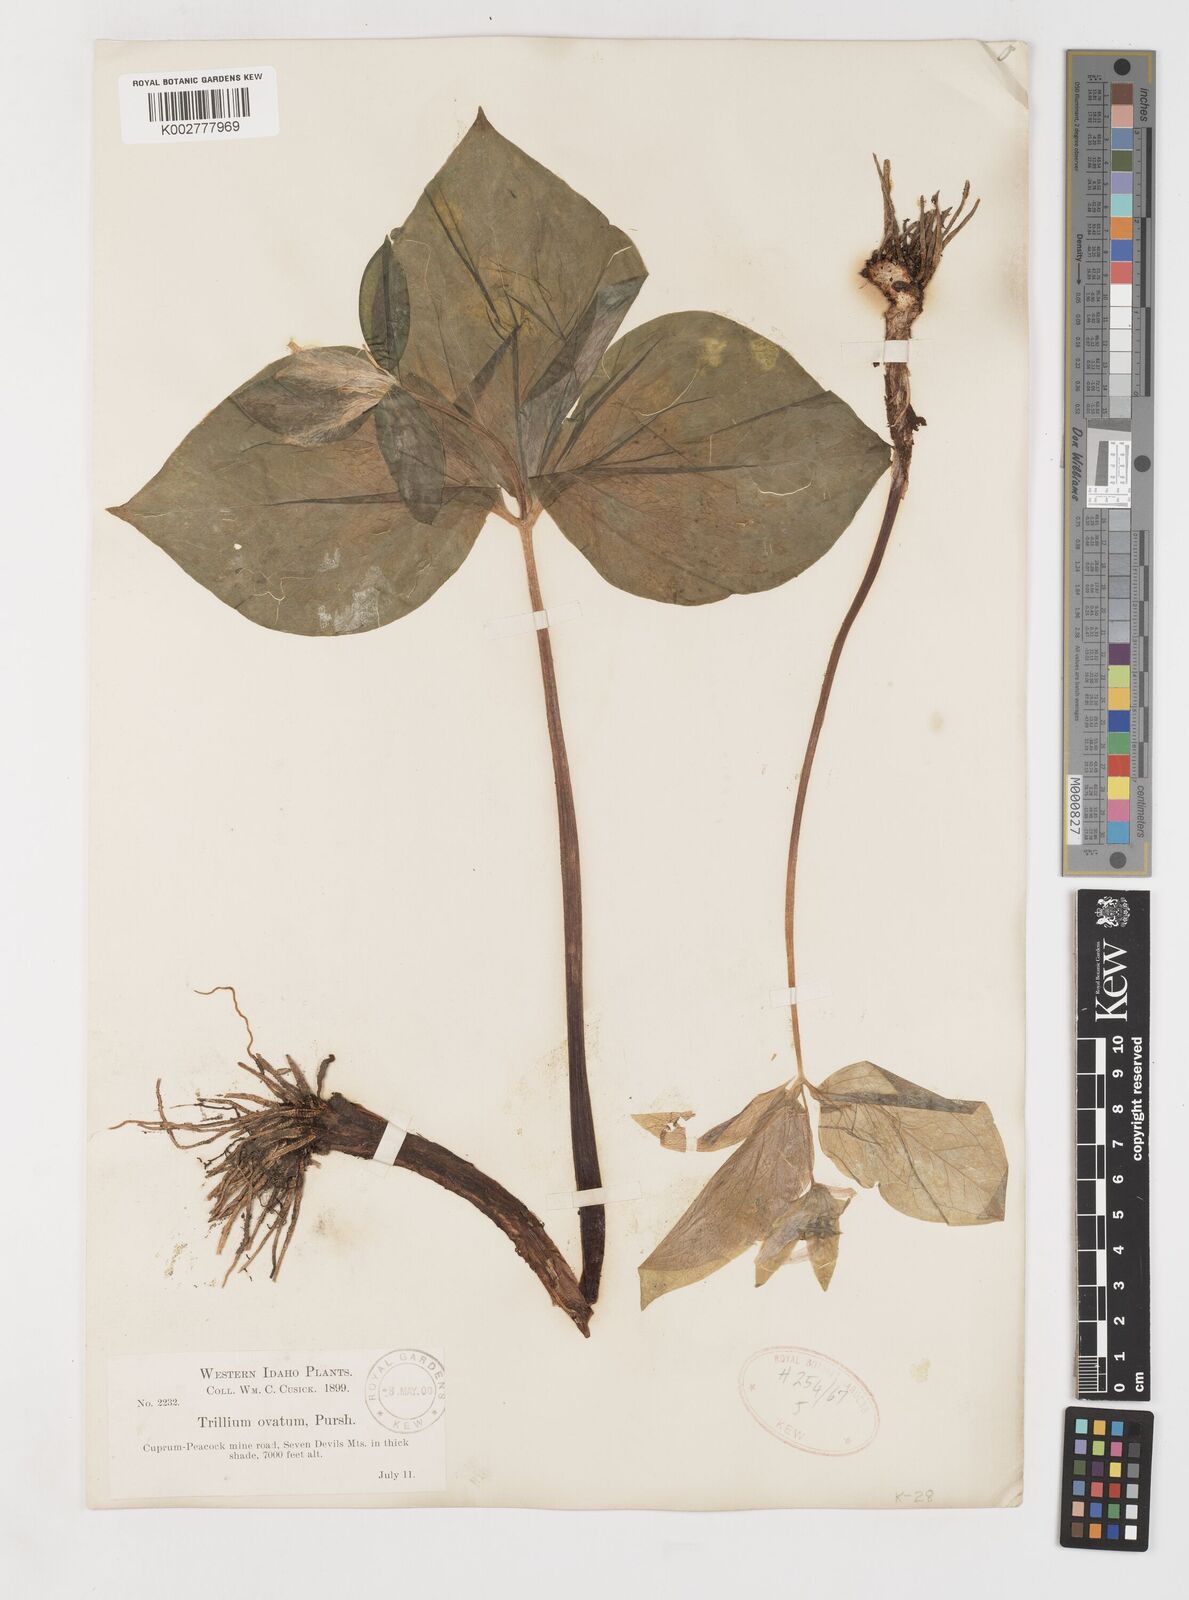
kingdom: Plantae
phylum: Tracheophyta
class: Liliopsida
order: Liliales
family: Melanthiaceae
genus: Trillium
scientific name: Trillium ovatum
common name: Pacific trillium
